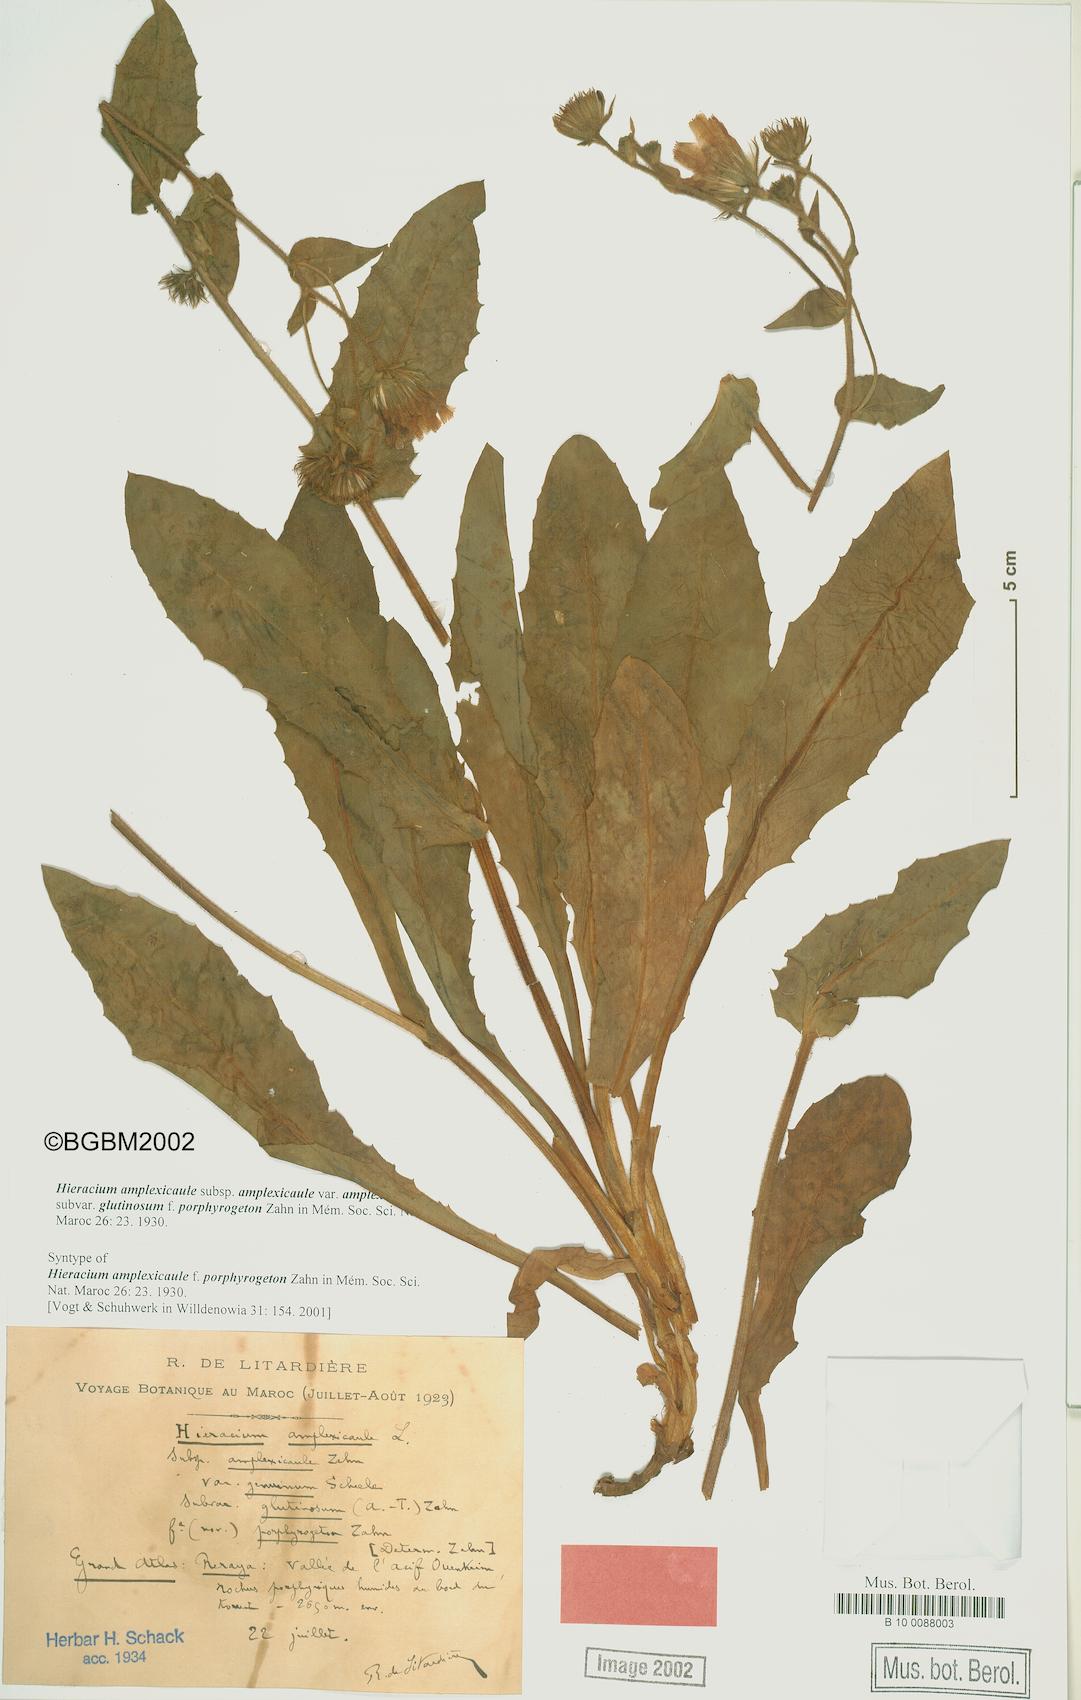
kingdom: Plantae
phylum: Tracheophyta
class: Magnoliopsida
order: Asterales
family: Asteraceae
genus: Hieracium
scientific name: Hieracium amplexicaule
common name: Sticky hawkweed
